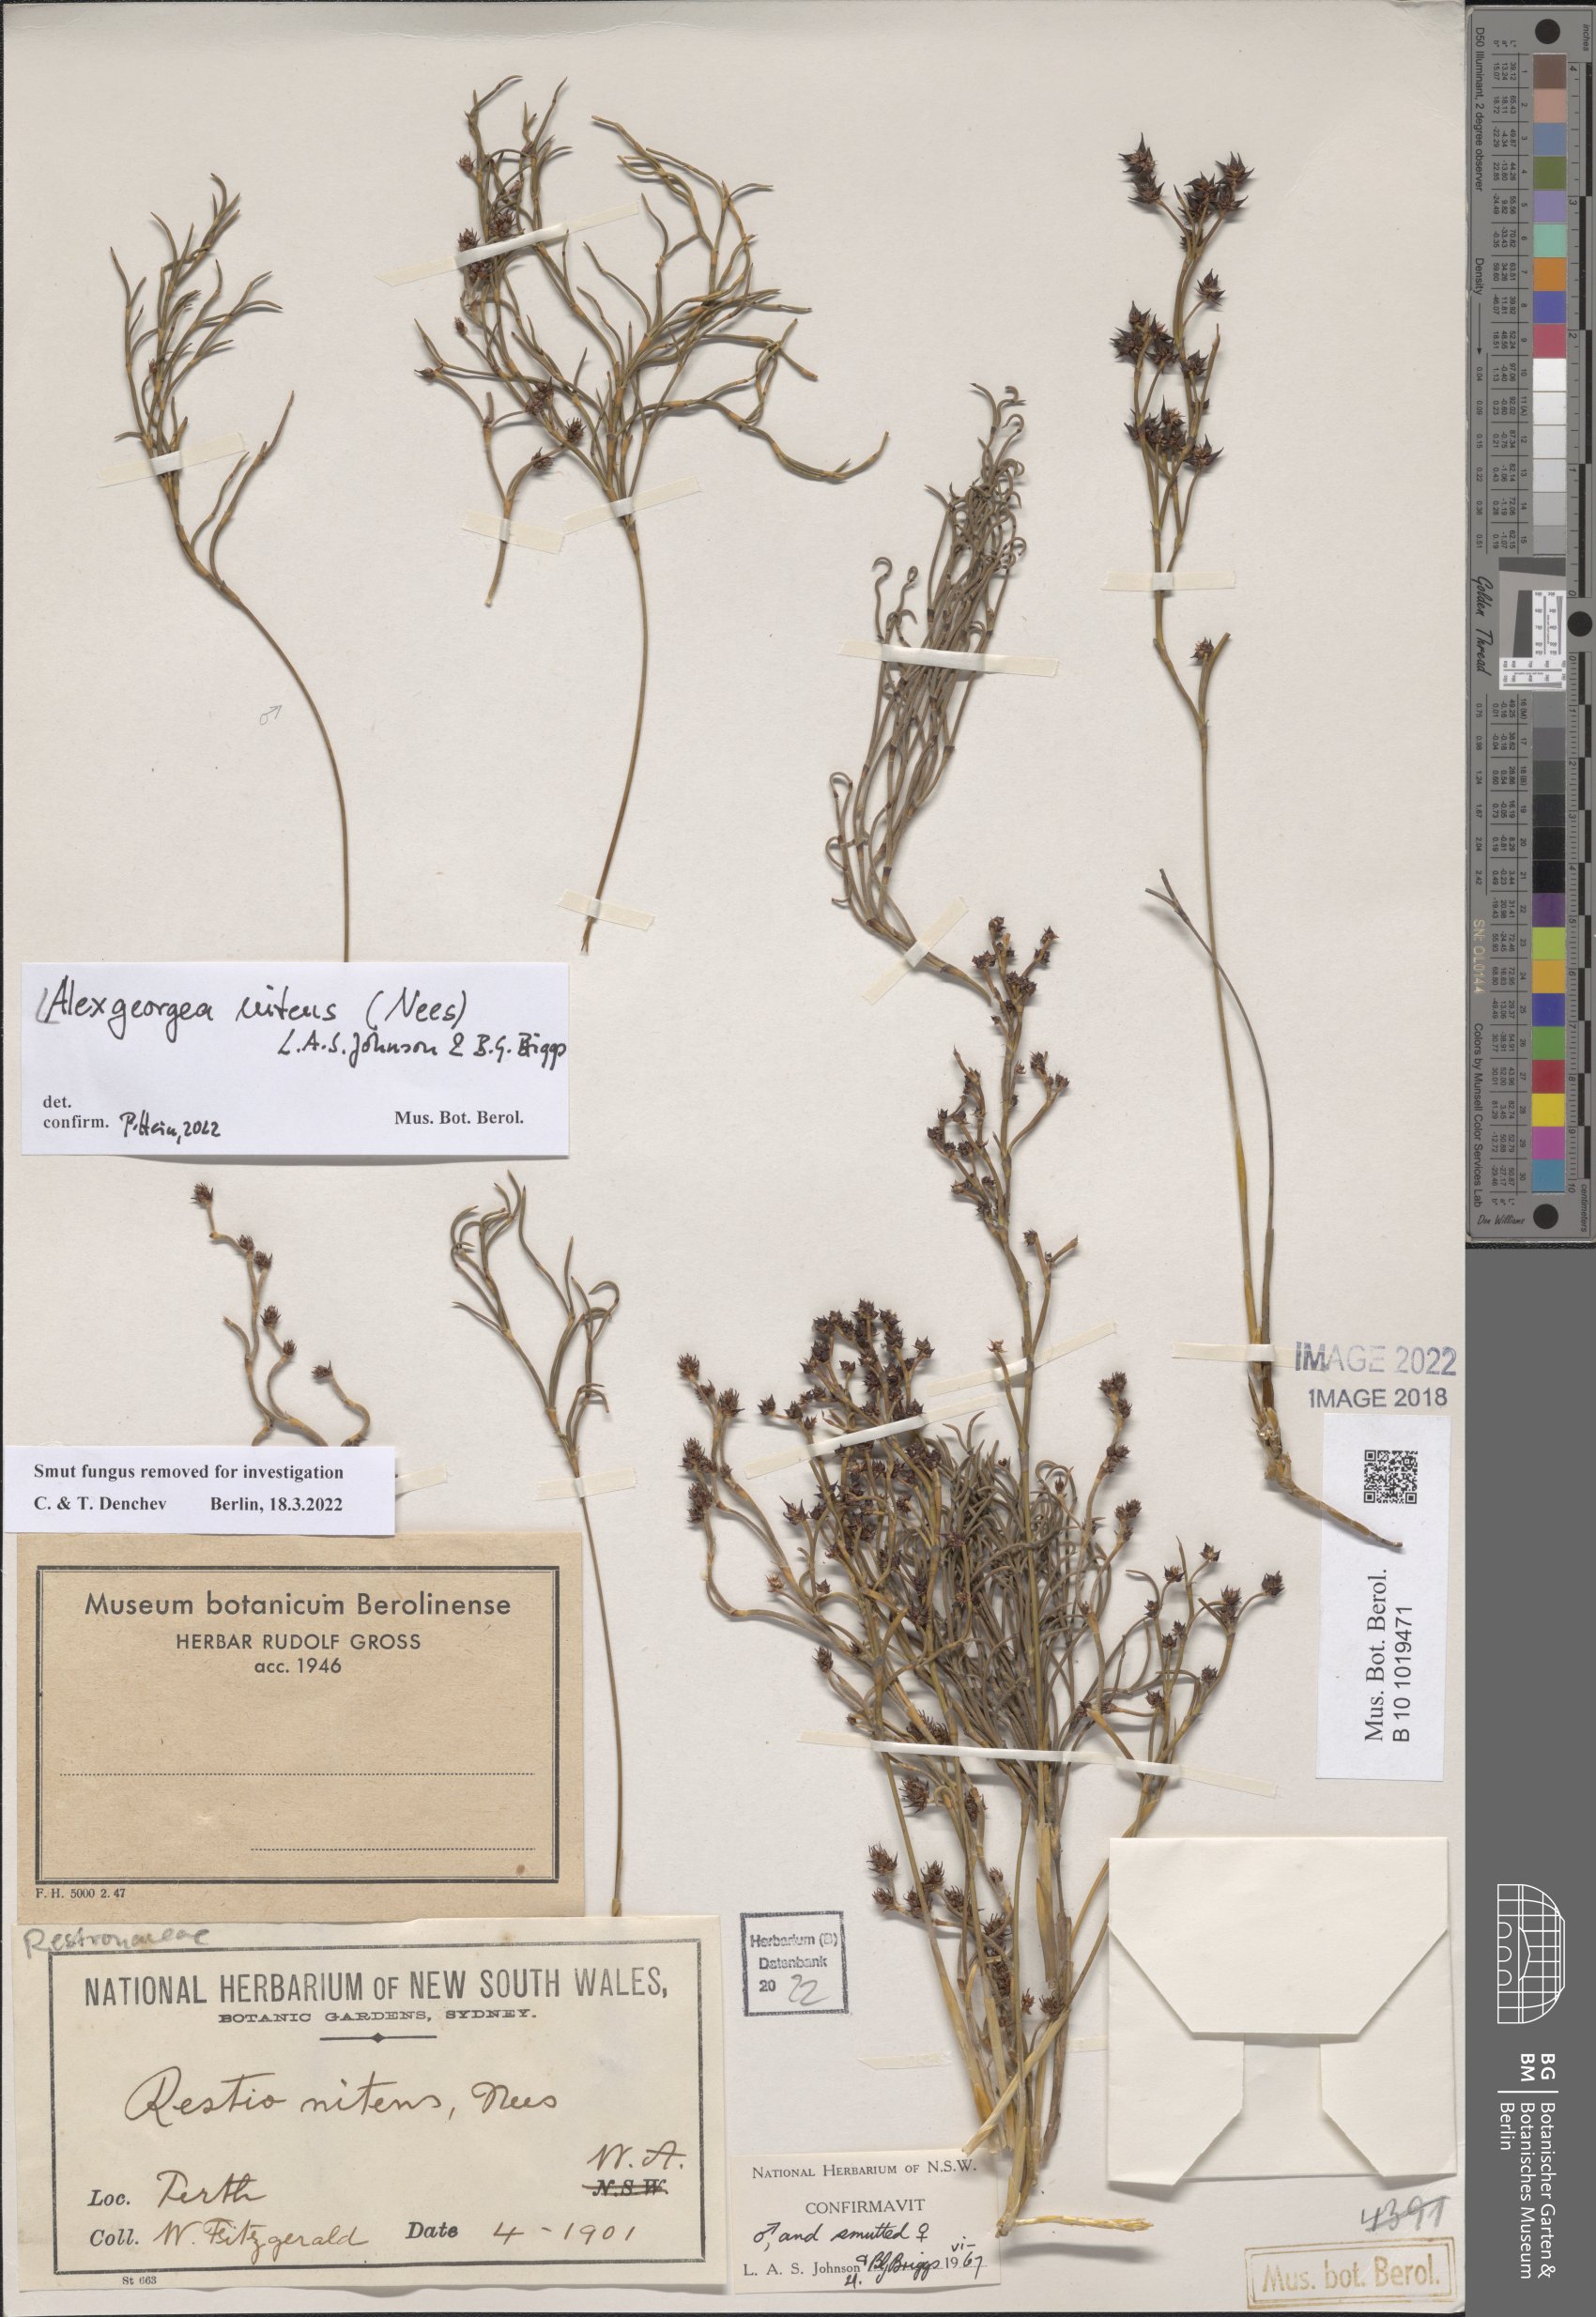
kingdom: Plantae
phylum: Tracheophyta
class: Liliopsida
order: Poales
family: Restionaceae
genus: Alexgeorgea
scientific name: Alexgeorgea nitens
